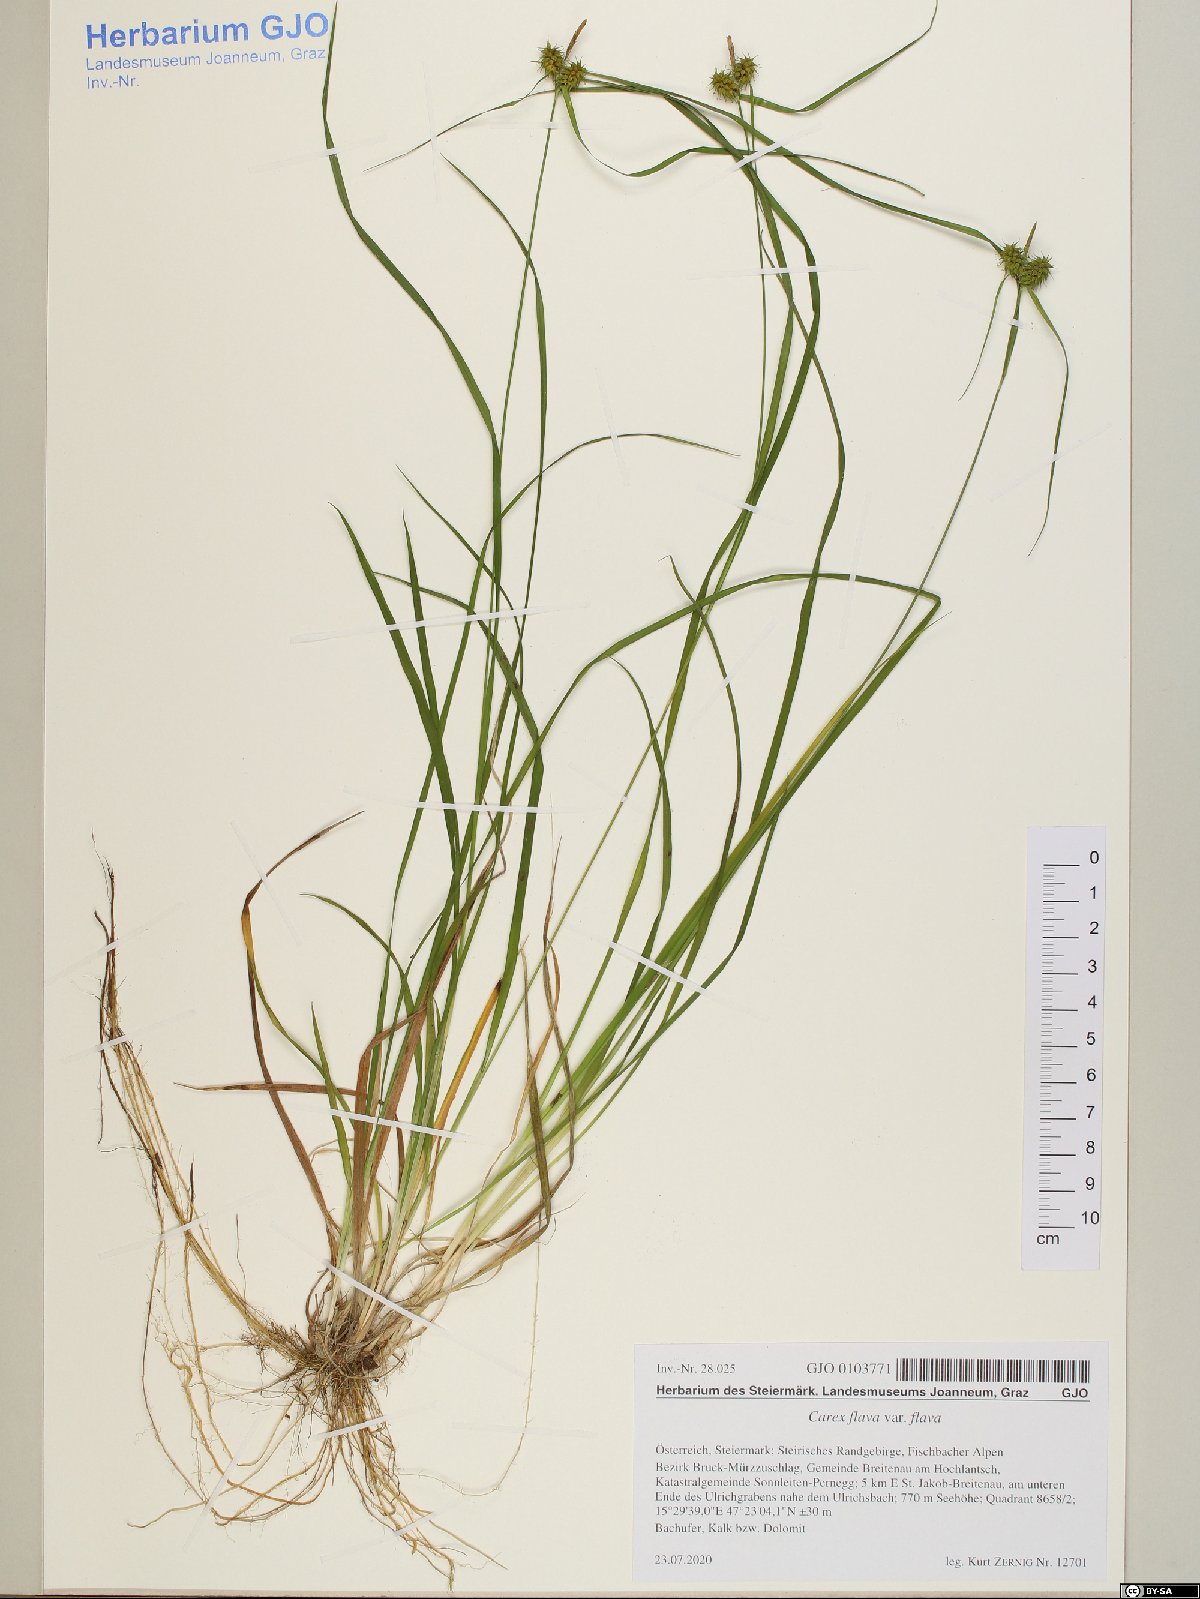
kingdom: Plantae
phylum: Tracheophyta
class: Liliopsida
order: Poales
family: Cyperaceae
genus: Carex
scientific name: Carex flava
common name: Large yellow-sedge
